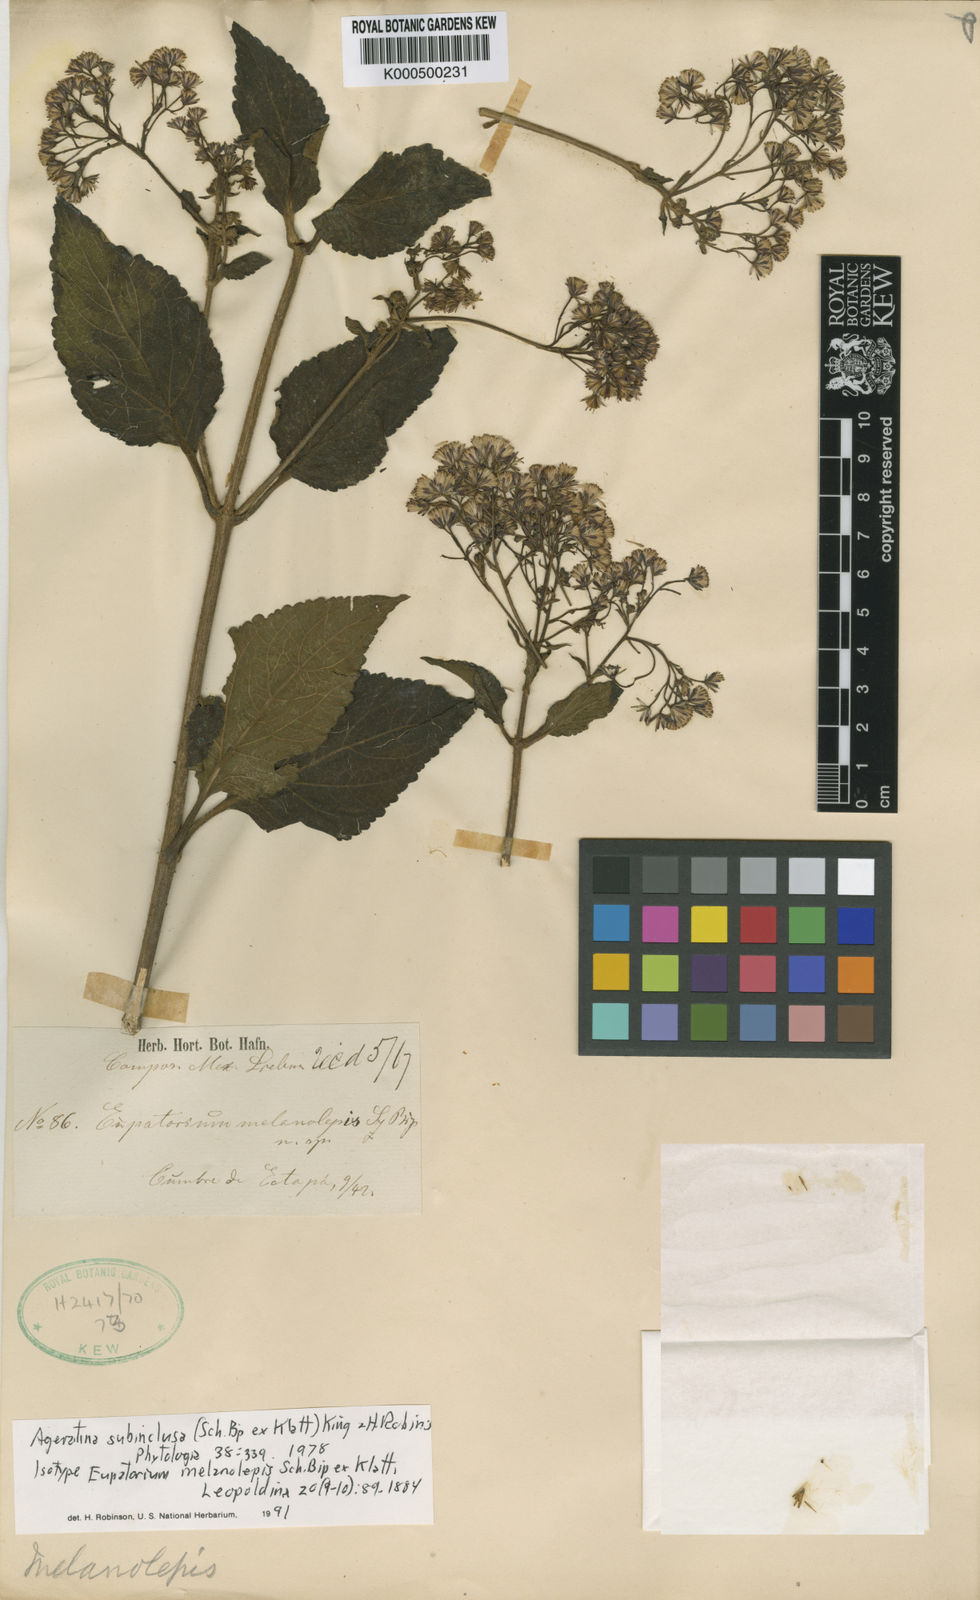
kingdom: Plantae
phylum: Tracheophyta
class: Magnoliopsida
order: Asterales
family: Asteraceae
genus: Ageratina
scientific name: Ageratina vernalis
